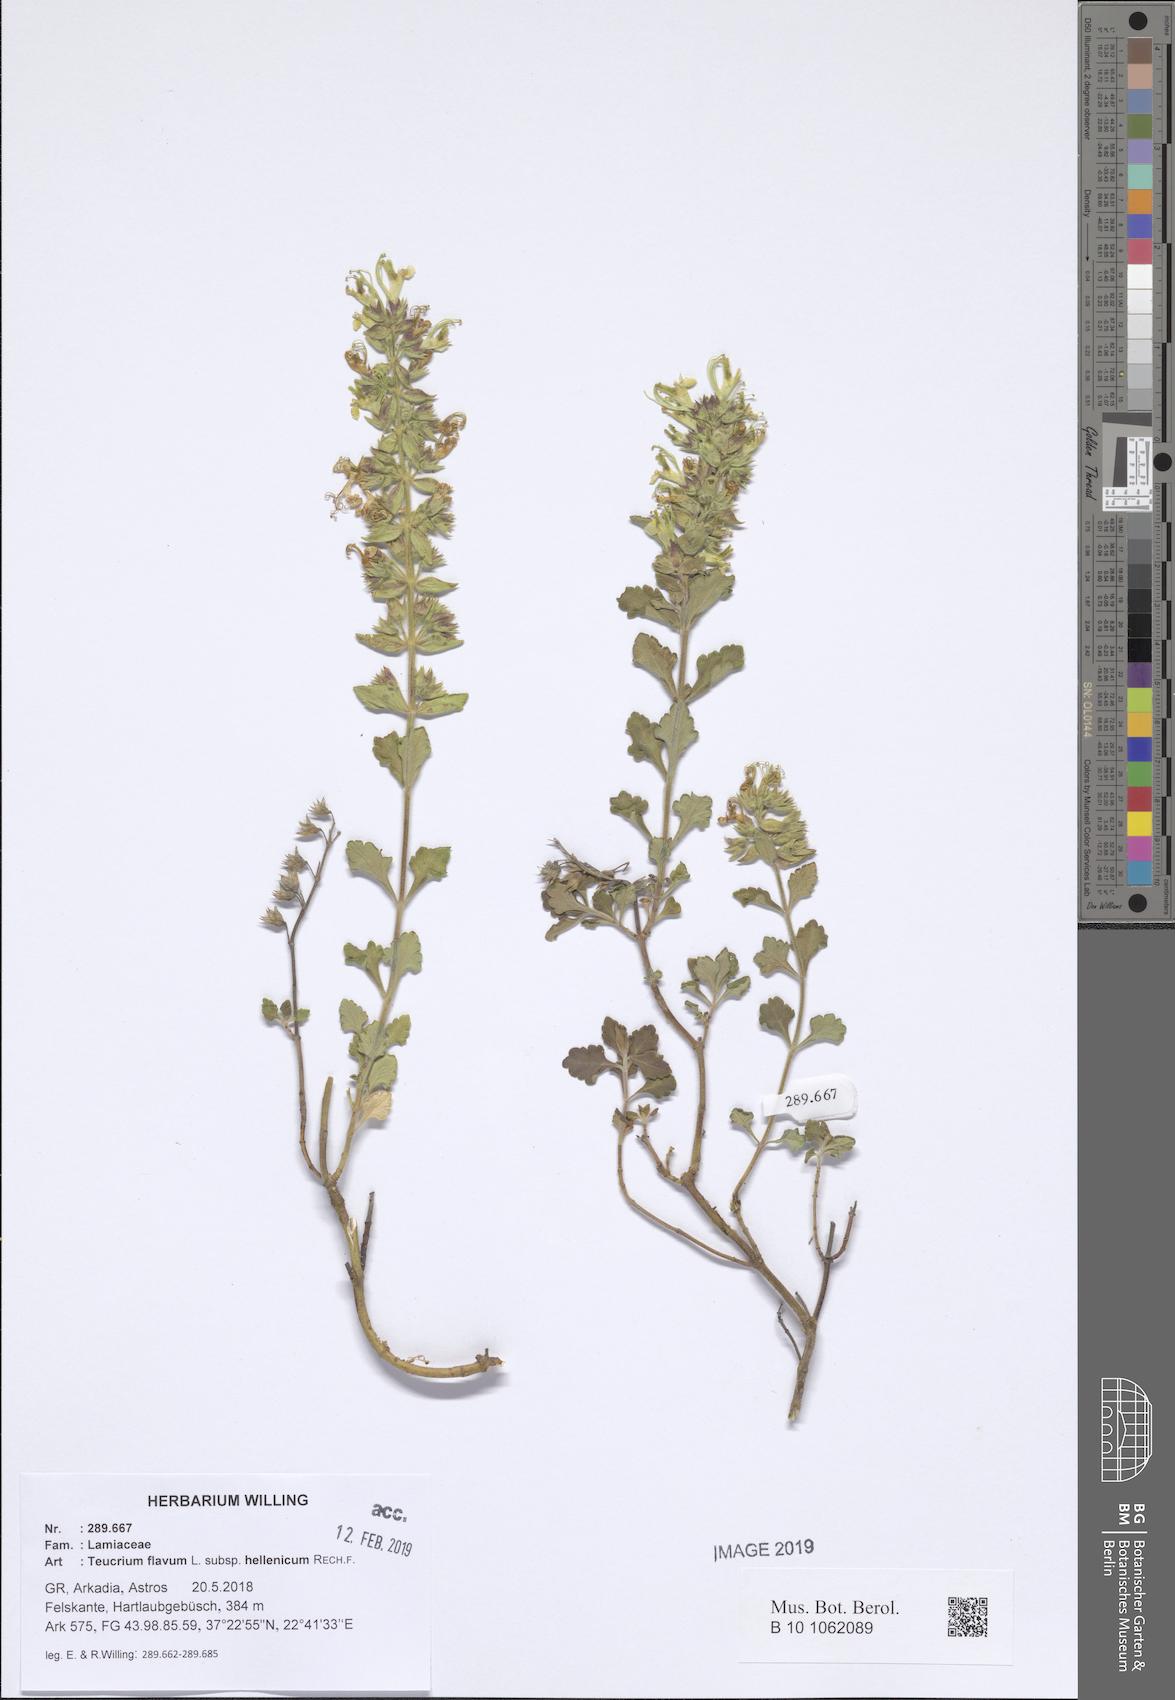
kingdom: Plantae
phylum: Tracheophyta
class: Magnoliopsida
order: Lamiales
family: Lamiaceae
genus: Teucrium
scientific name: Teucrium flavum
